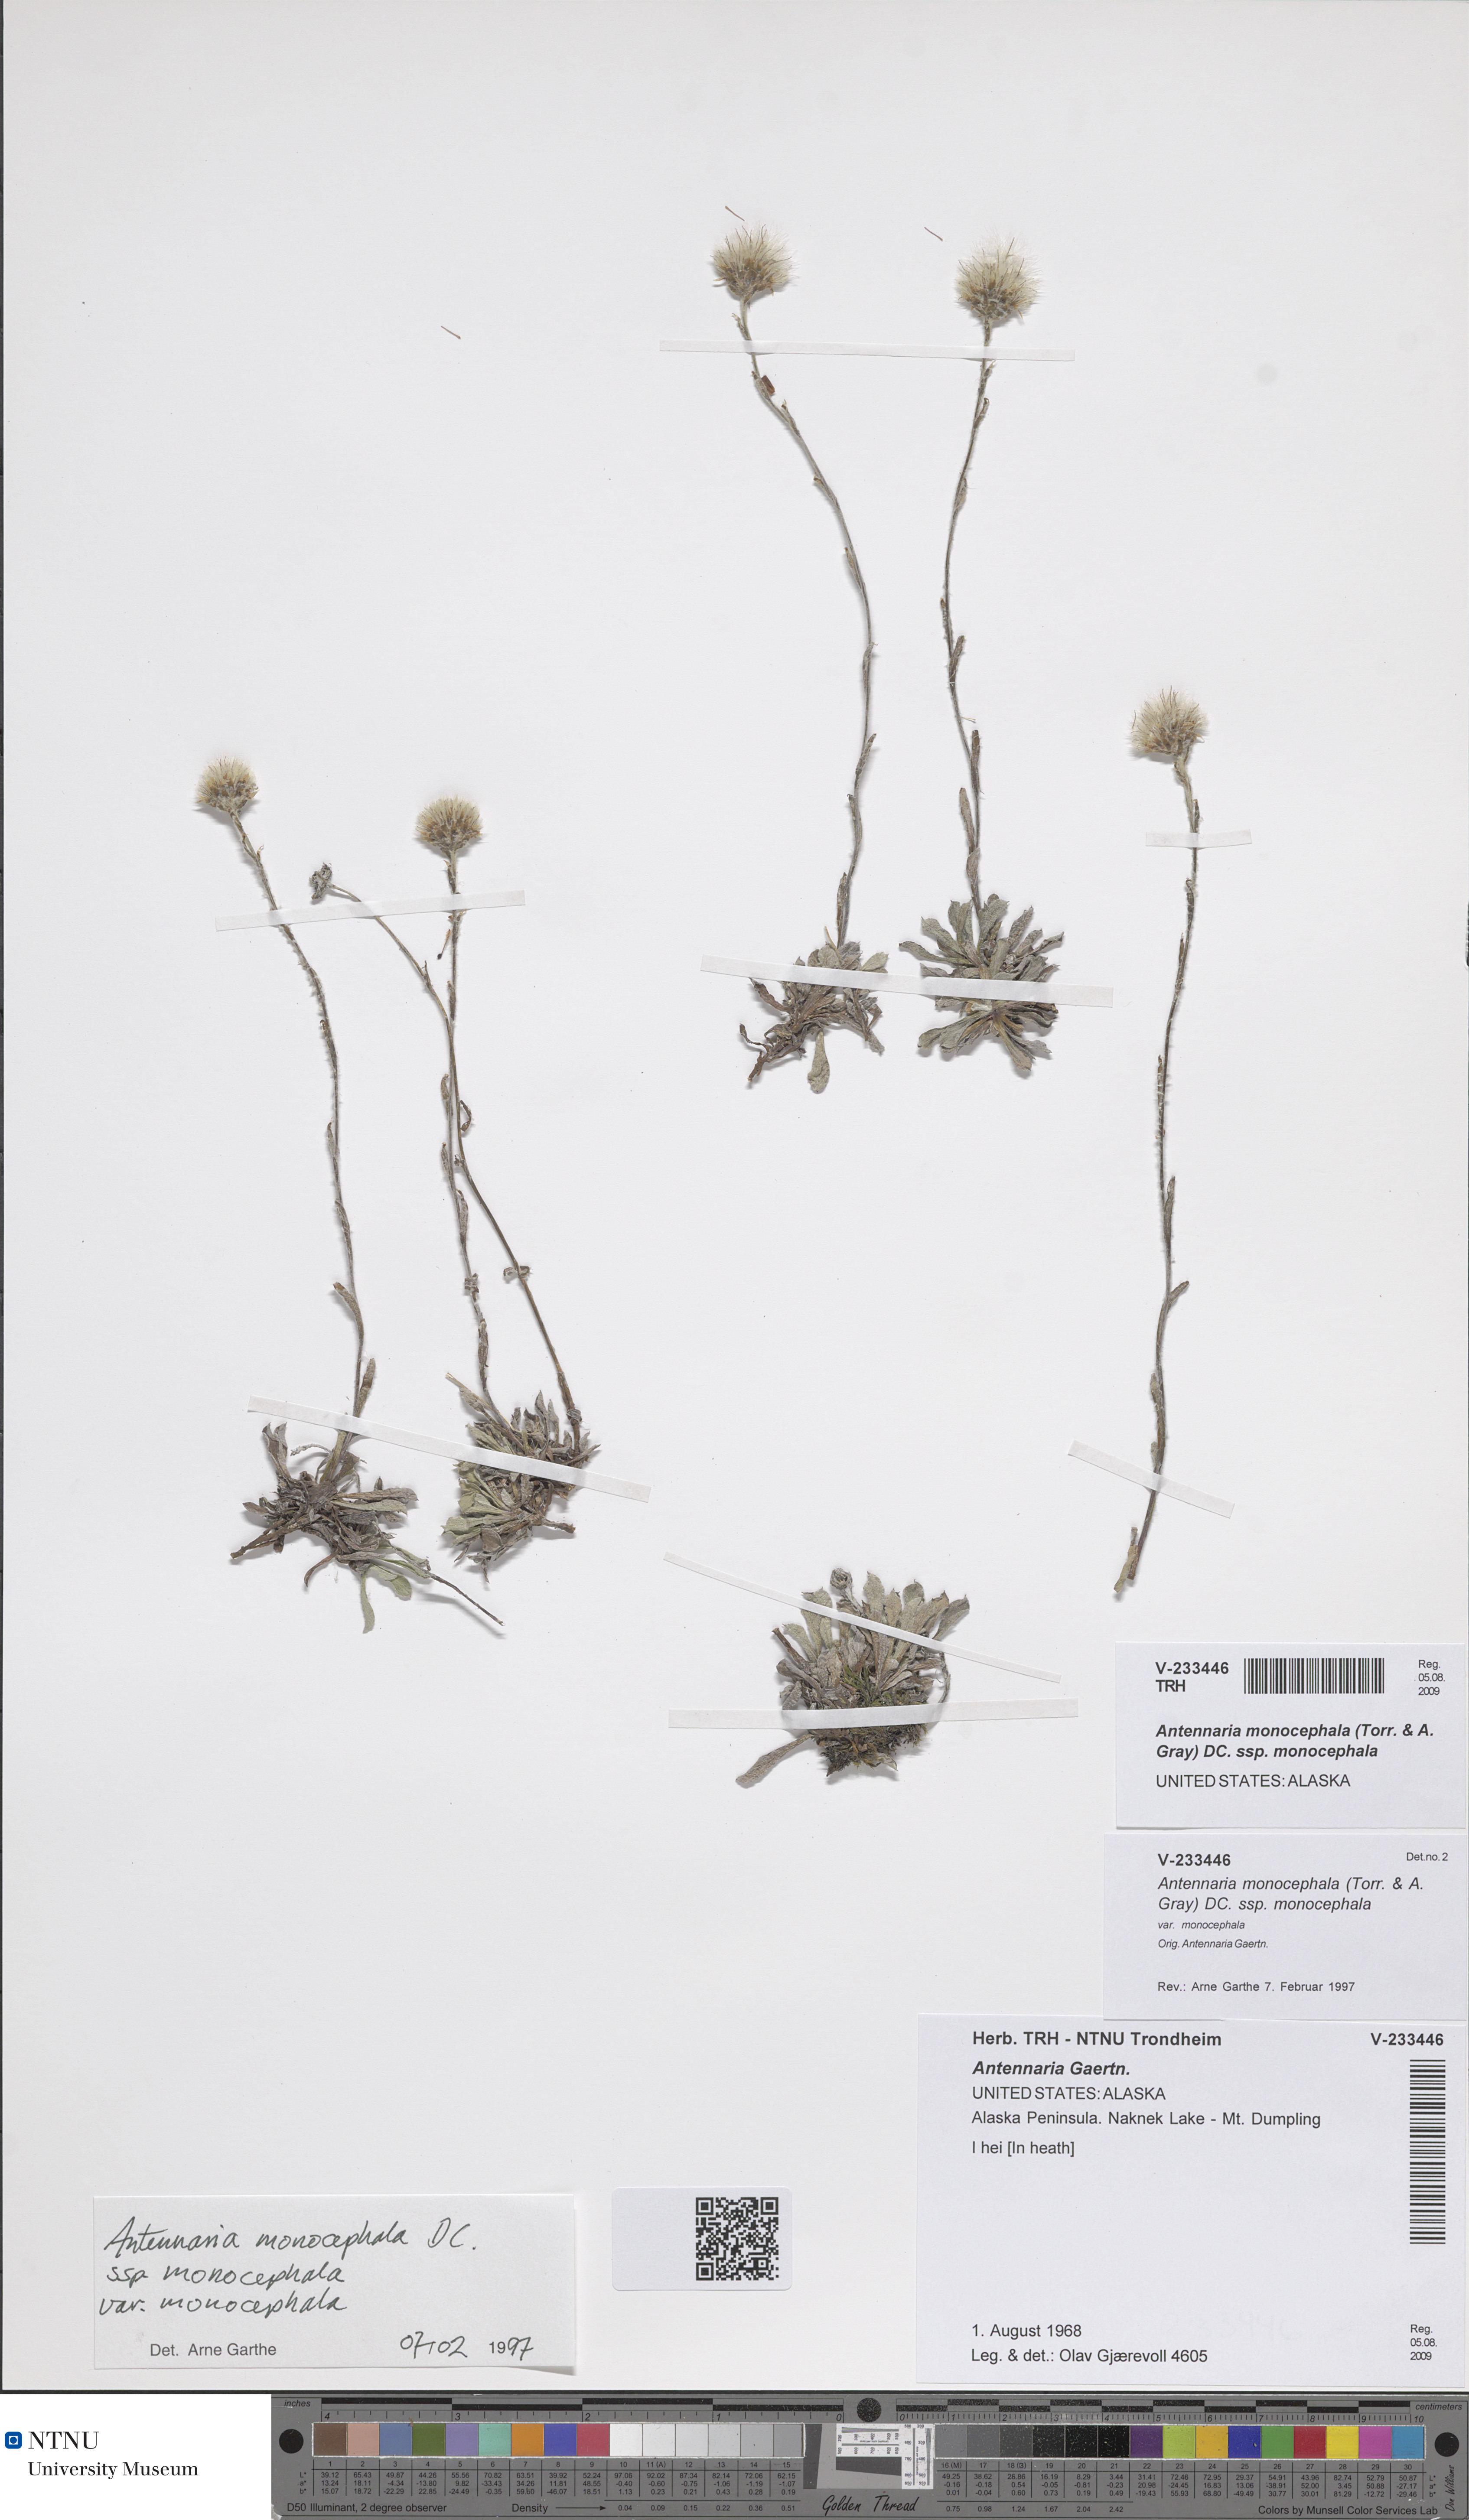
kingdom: Plantae
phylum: Tracheophyta
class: Magnoliopsida
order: Asterales
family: Asteraceae
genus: Antennaria
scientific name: Antennaria monocephala
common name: Pygmy pussytoes
